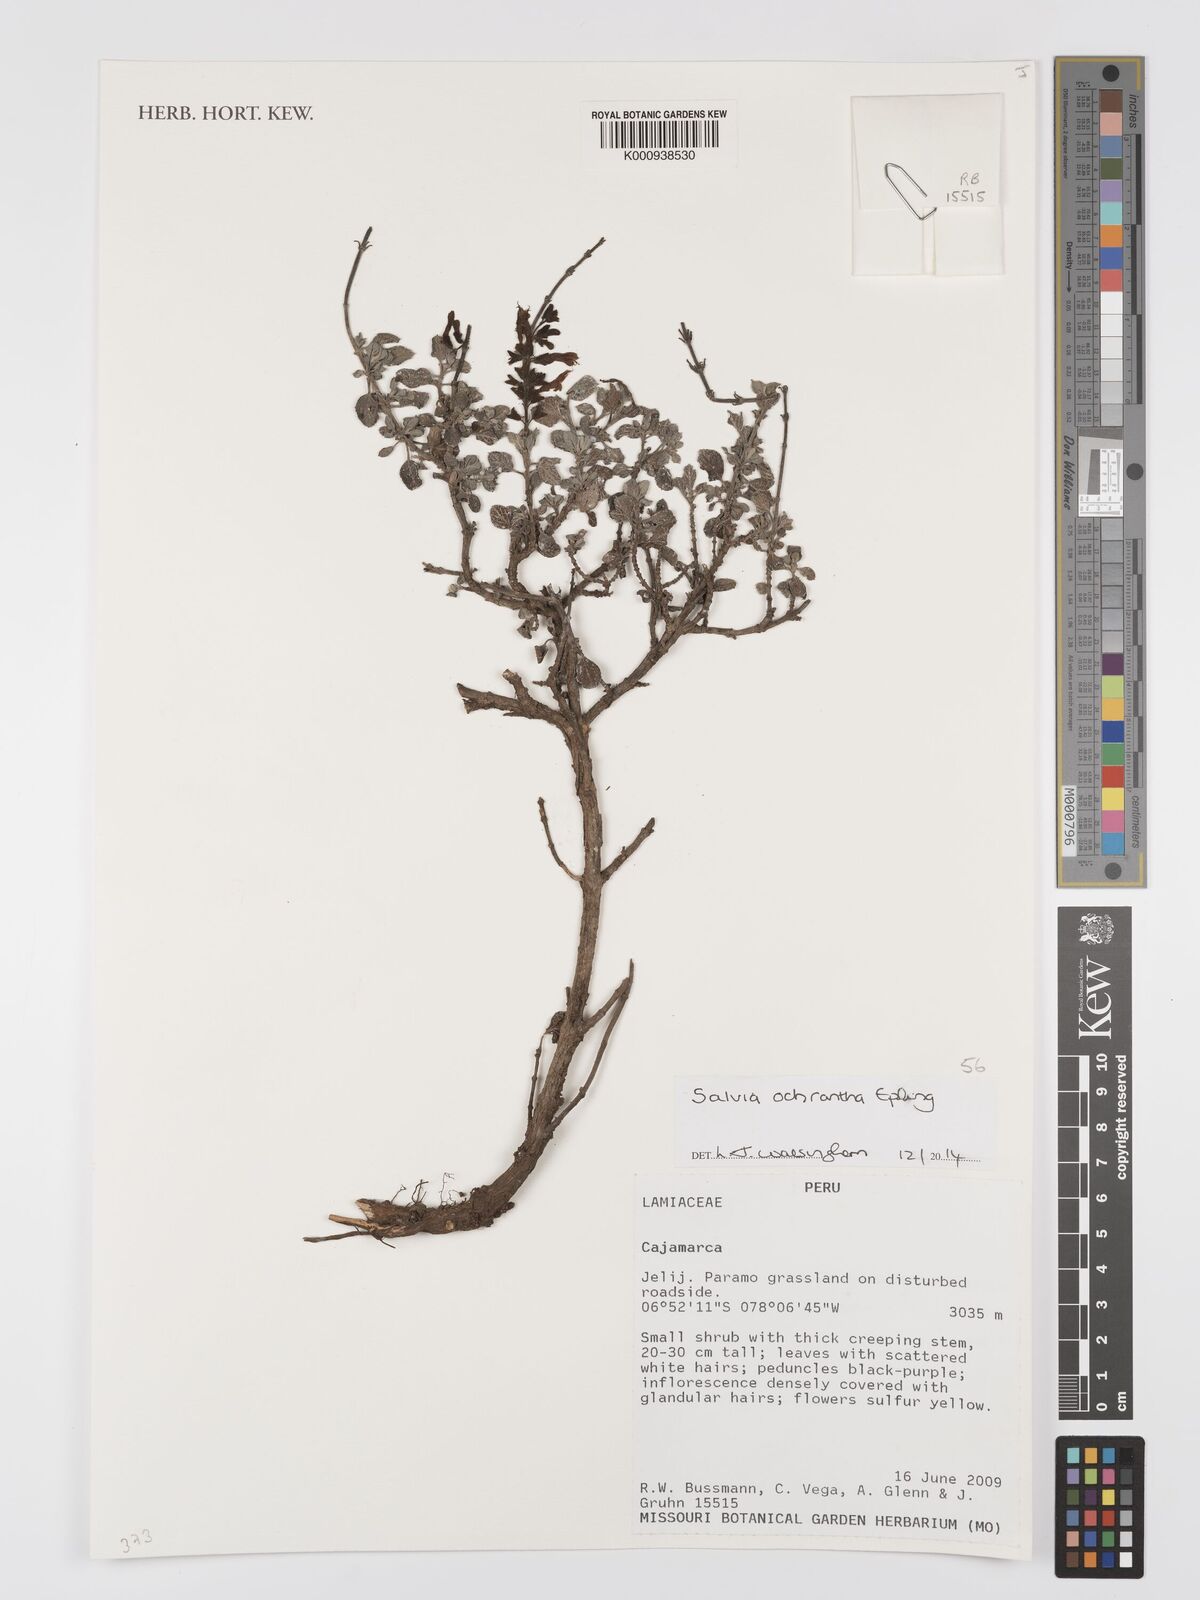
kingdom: Plantae
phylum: Tracheophyta
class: Magnoliopsida
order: Lamiales
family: Lamiaceae
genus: Salvia
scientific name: Salvia ochrantha
